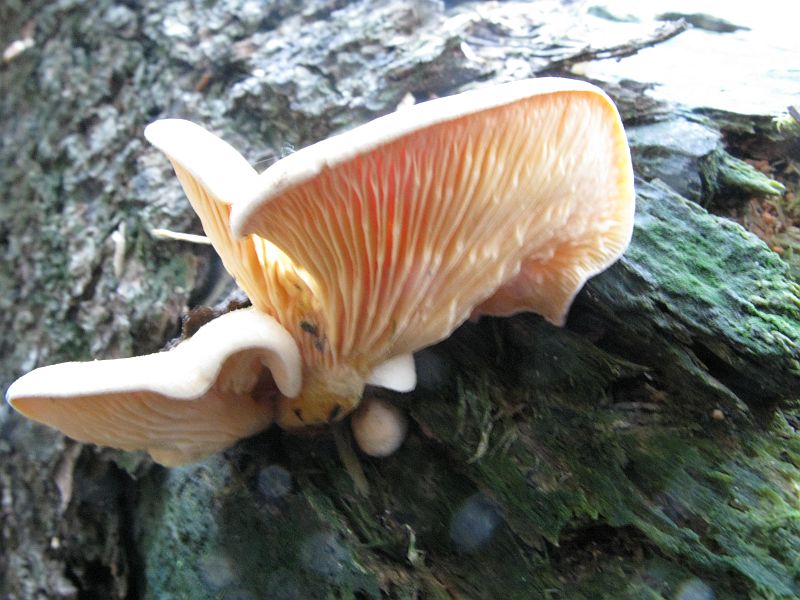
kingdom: Fungi
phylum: Basidiomycota
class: Agaricomycetes
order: Boletales
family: Hygrophoropsidaceae
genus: Hygrophoropsis
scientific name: Hygrophoropsis aurantiaca
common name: almindelig orangekantarel
